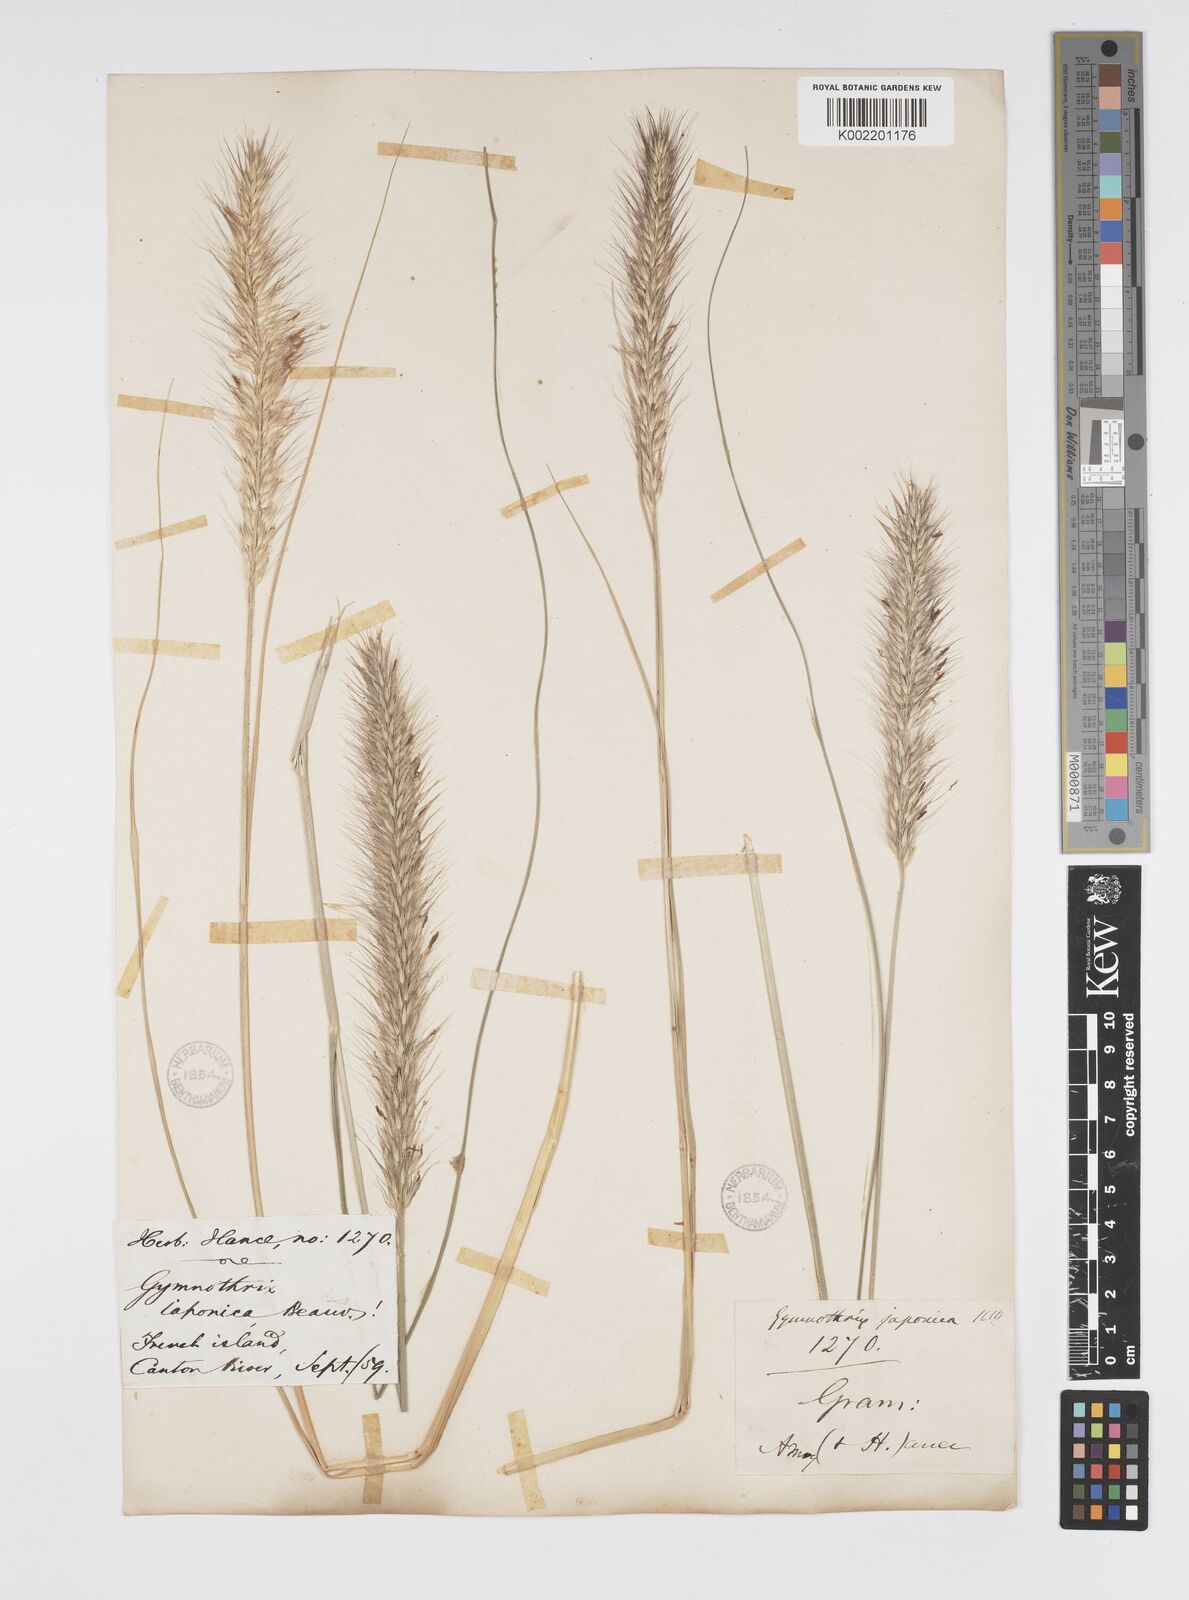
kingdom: Plantae
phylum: Tracheophyta
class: Liliopsida
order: Poales
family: Poaceae
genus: Cenchrus
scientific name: Cenchrus alopecuroides
